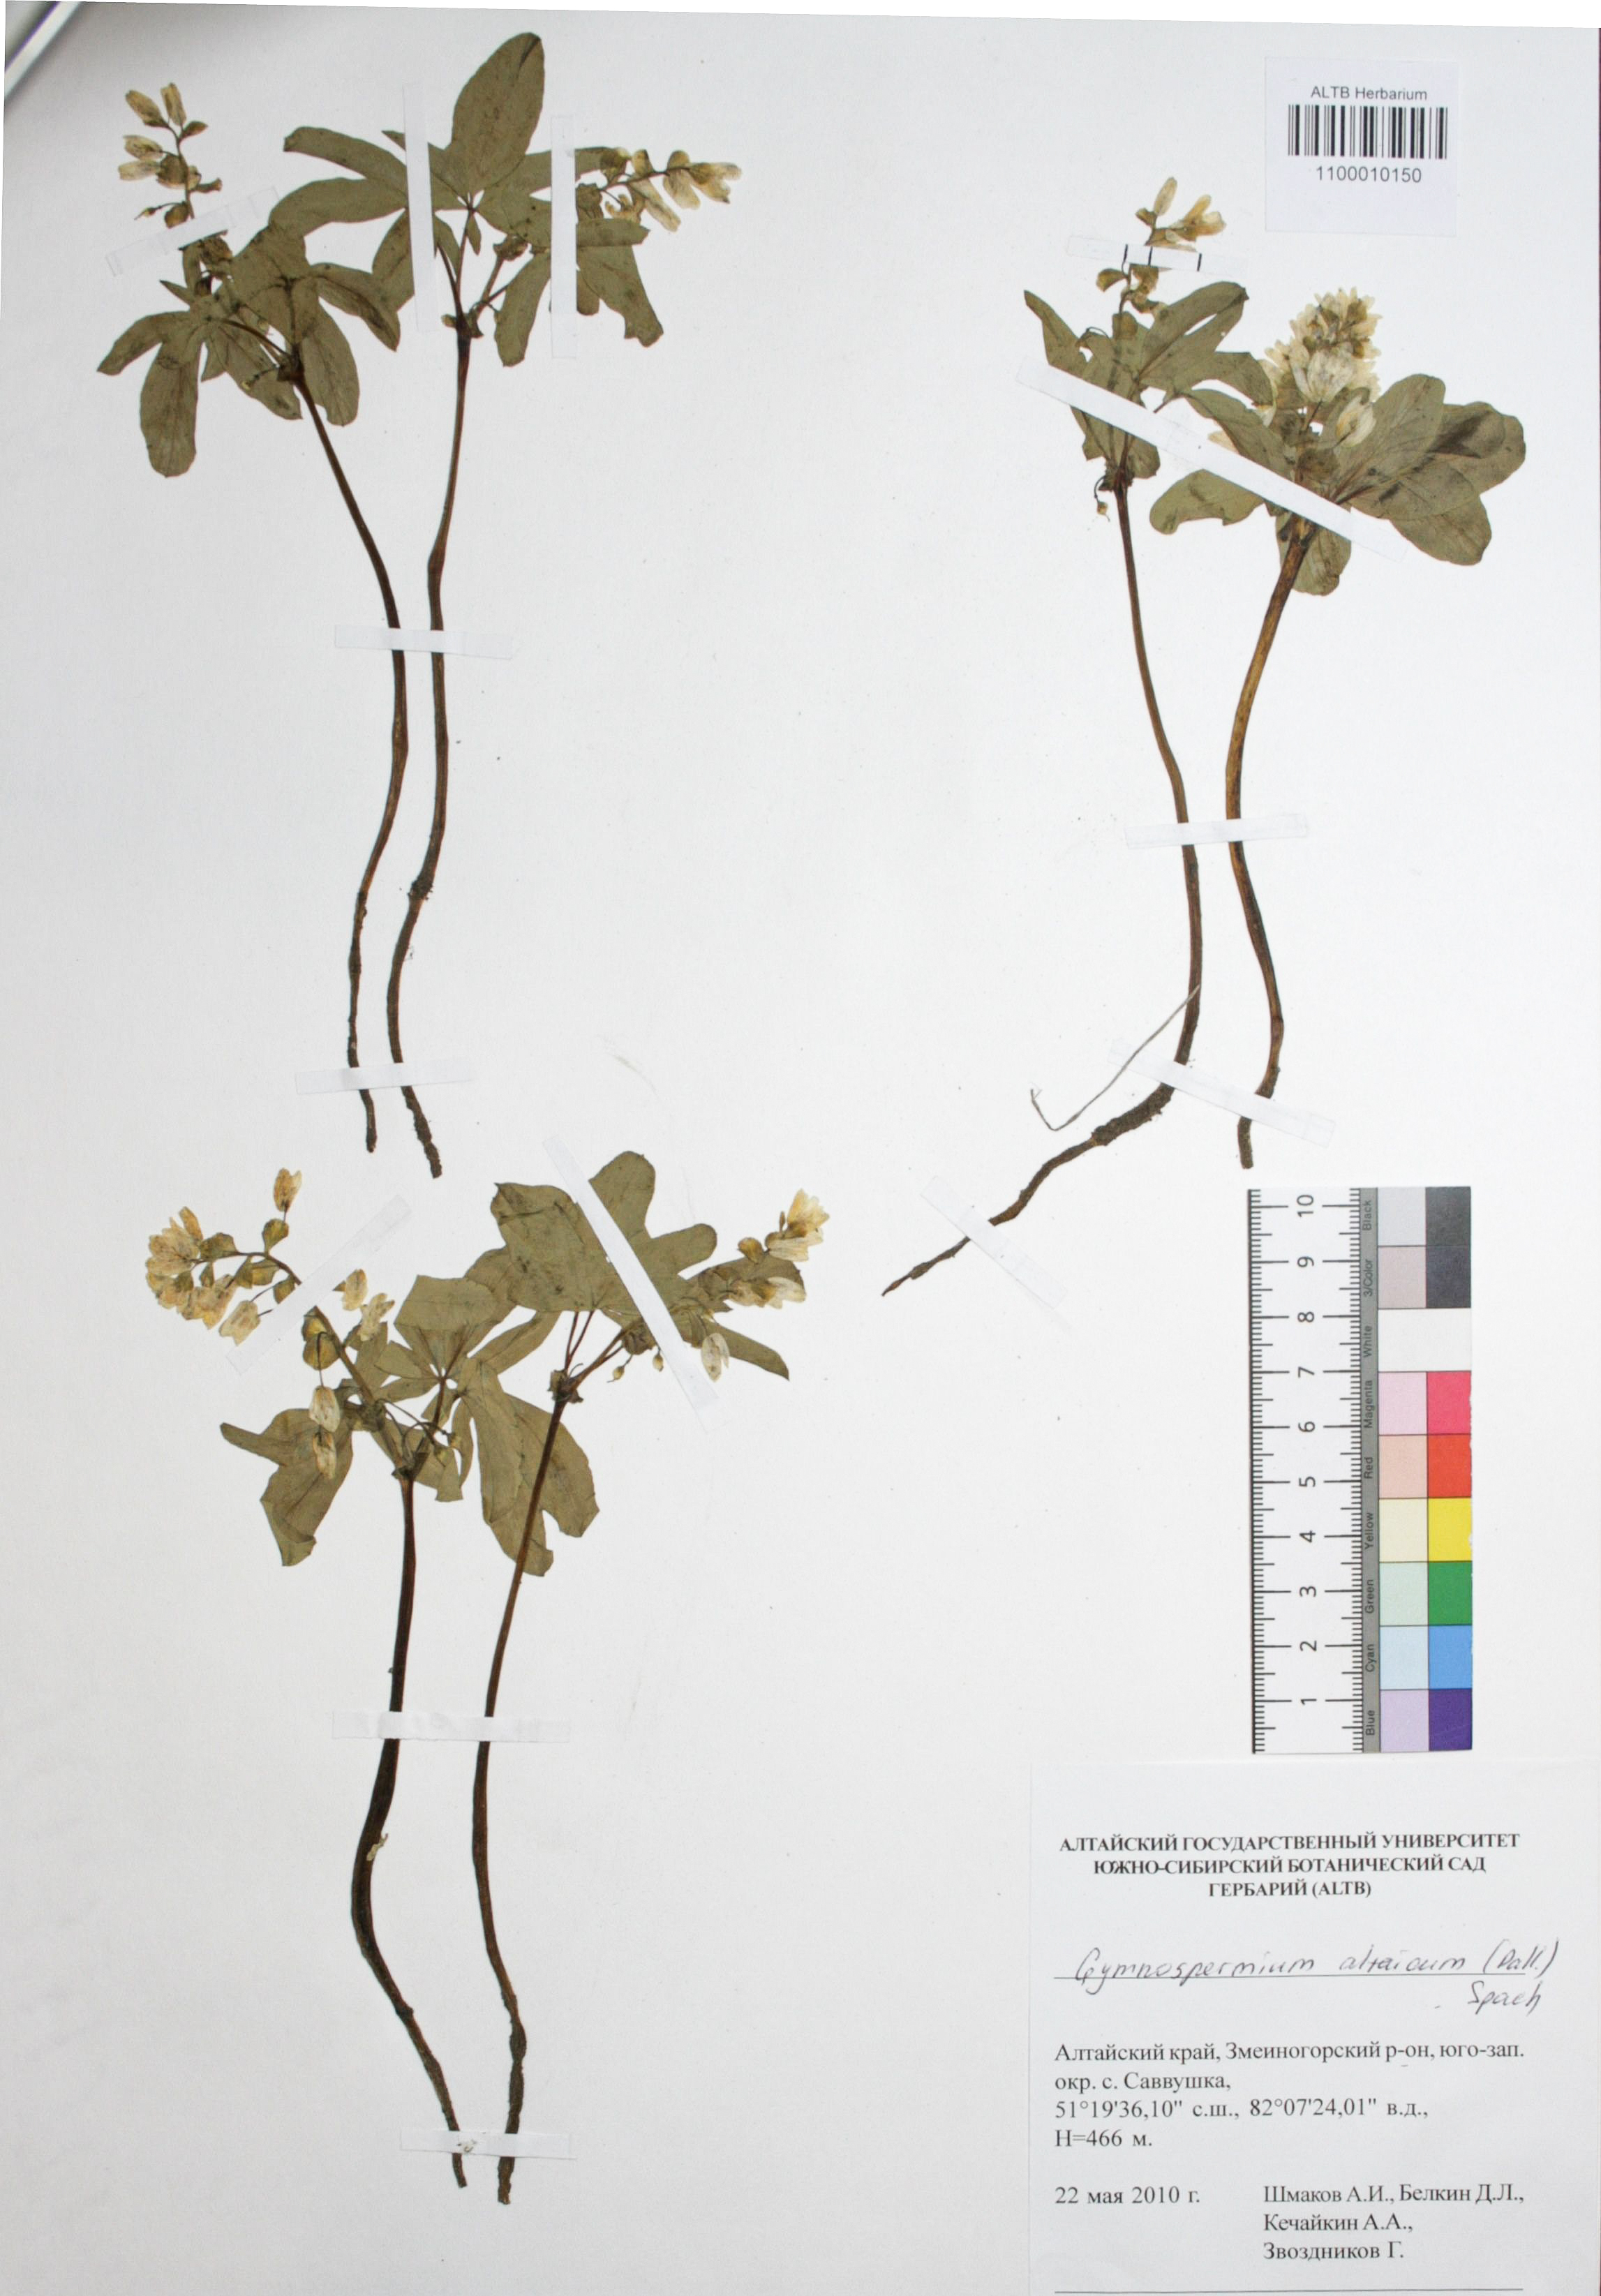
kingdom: Plantae
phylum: Tracheophyta
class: Magnoliopsida
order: Ranunculales
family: Berberidaceae
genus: Gymnospermium
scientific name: Gymnospermium altaicum
